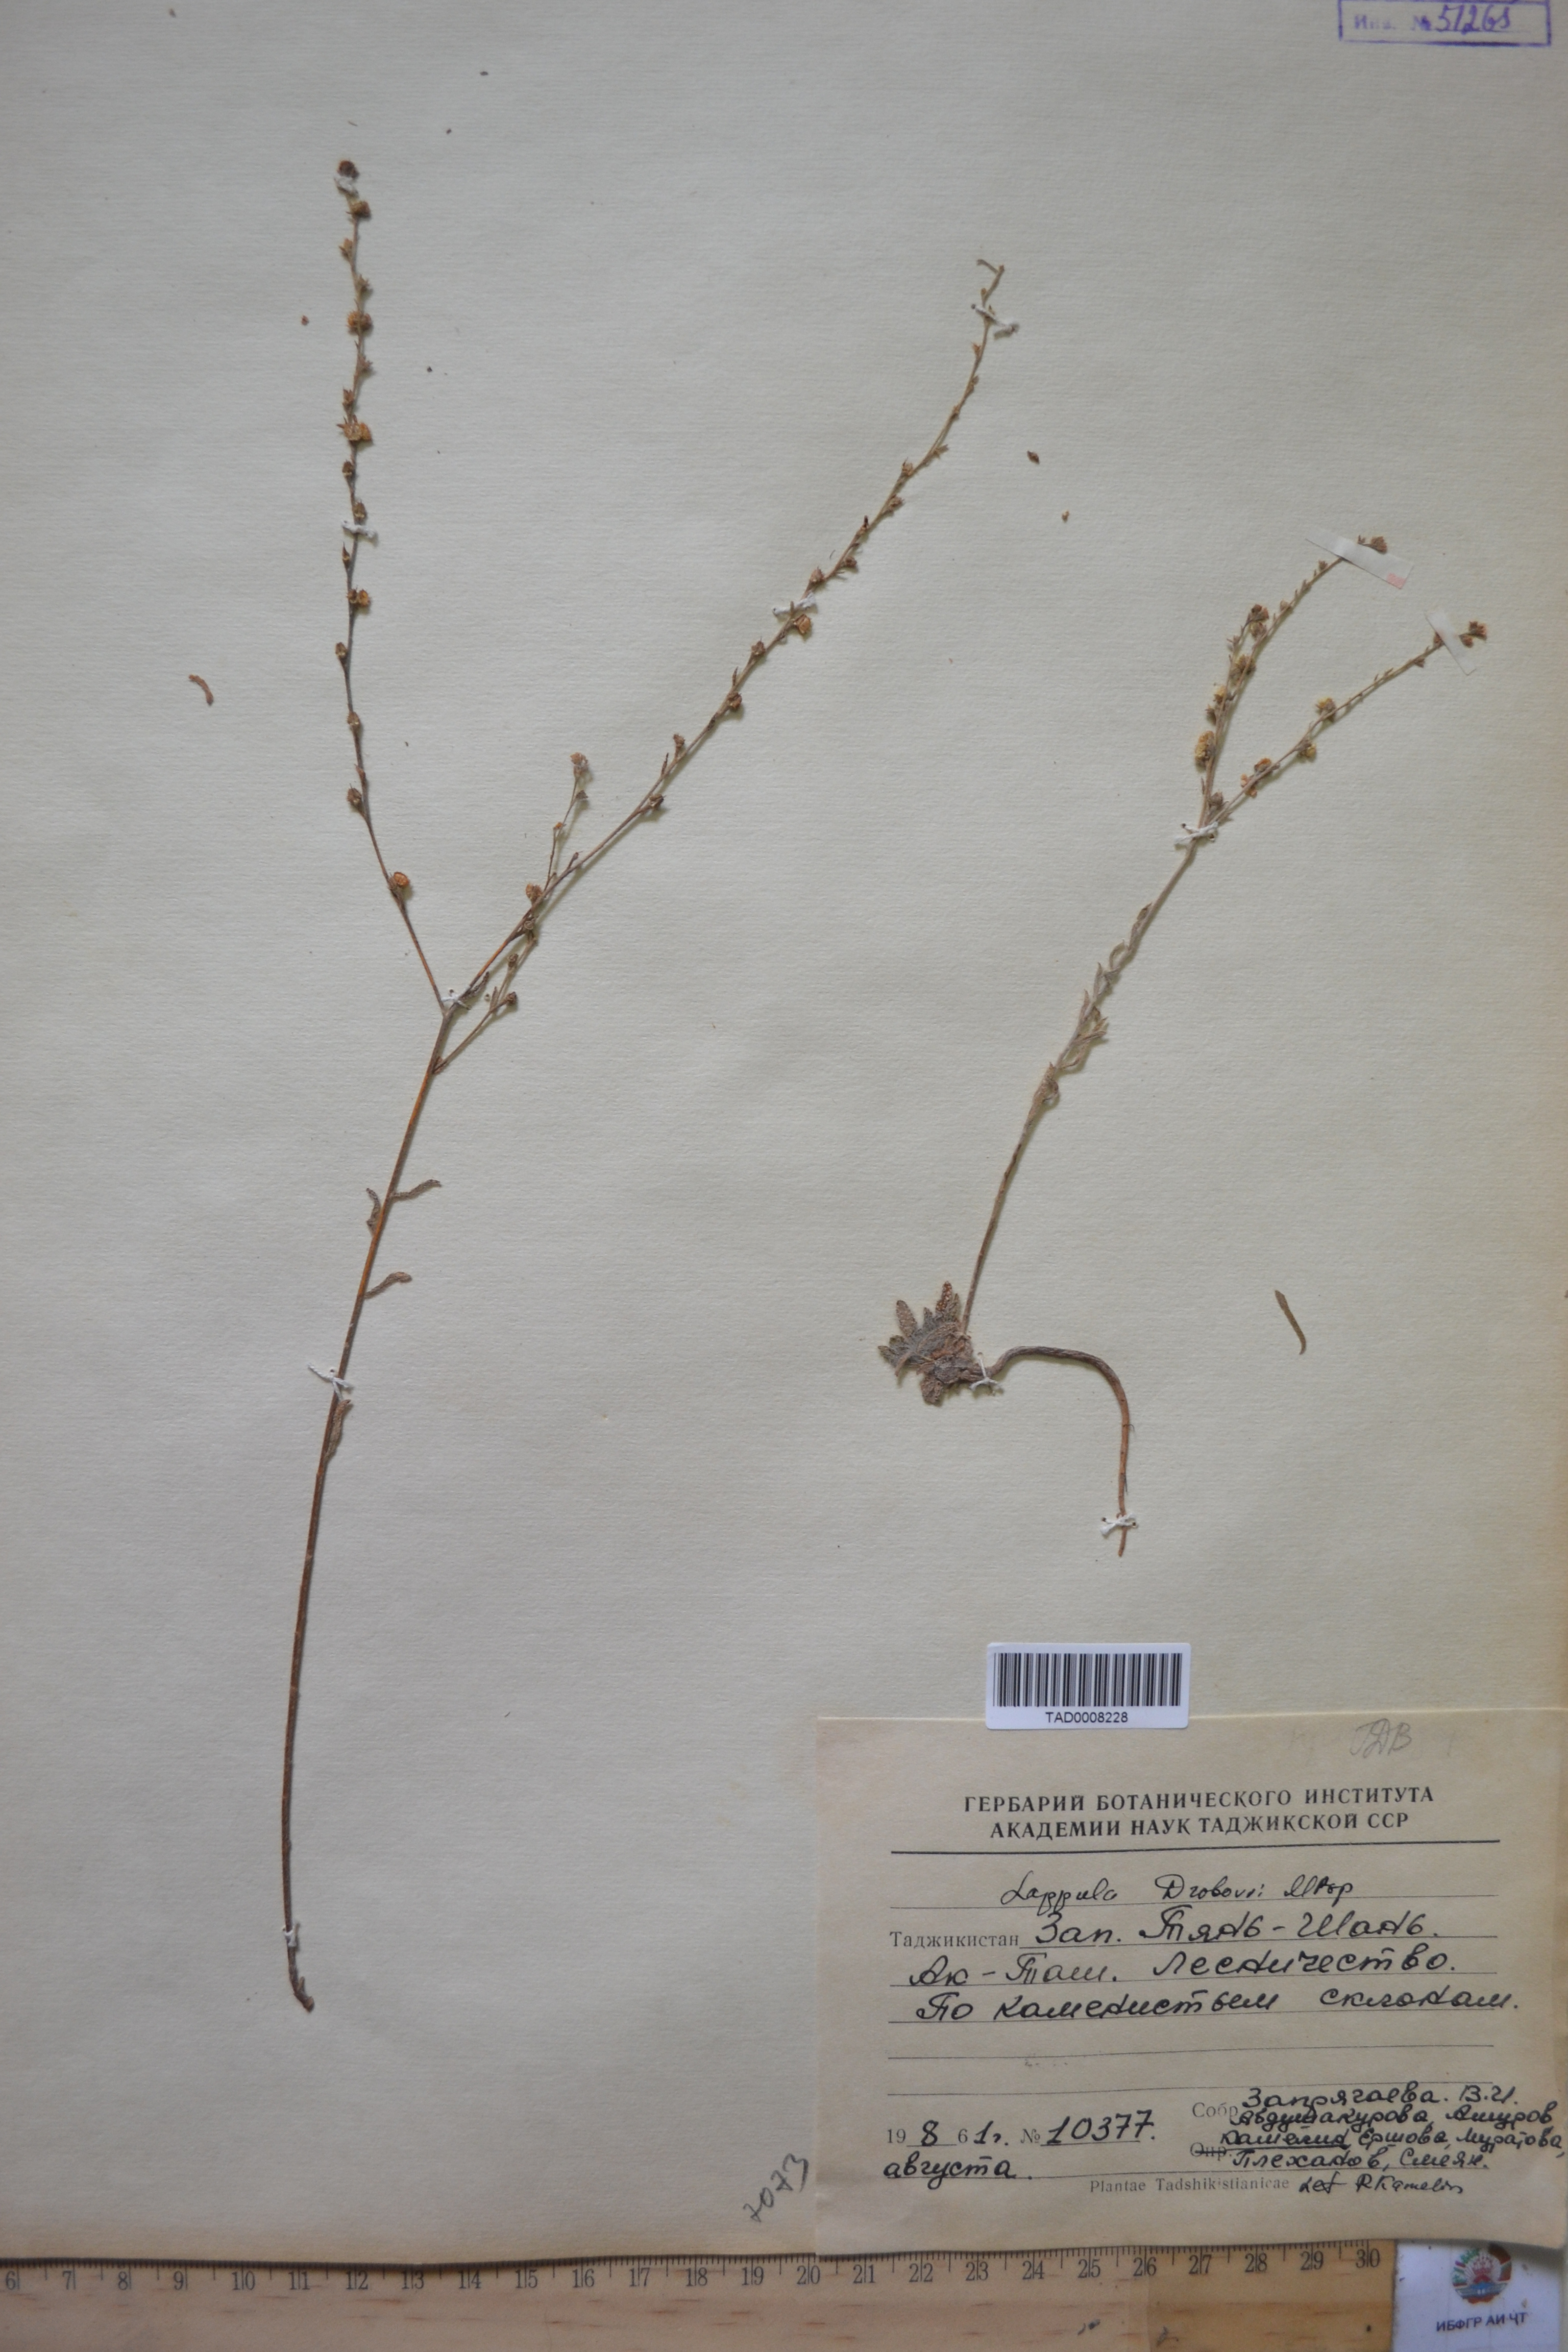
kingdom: Plantae
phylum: Tracheophyta
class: Magnoliopsida
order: Boraginales
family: Boraginaceae
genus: Rochelia
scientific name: Rochelia drobovii
